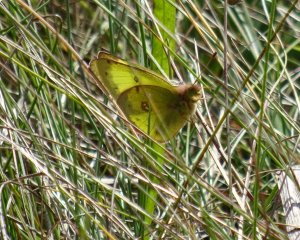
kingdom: Animalia
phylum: Arthropoda
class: Insecta
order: Lepidoptera
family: Pieridae
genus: Colias
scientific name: Colias philodice
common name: Clouded Sulphur
